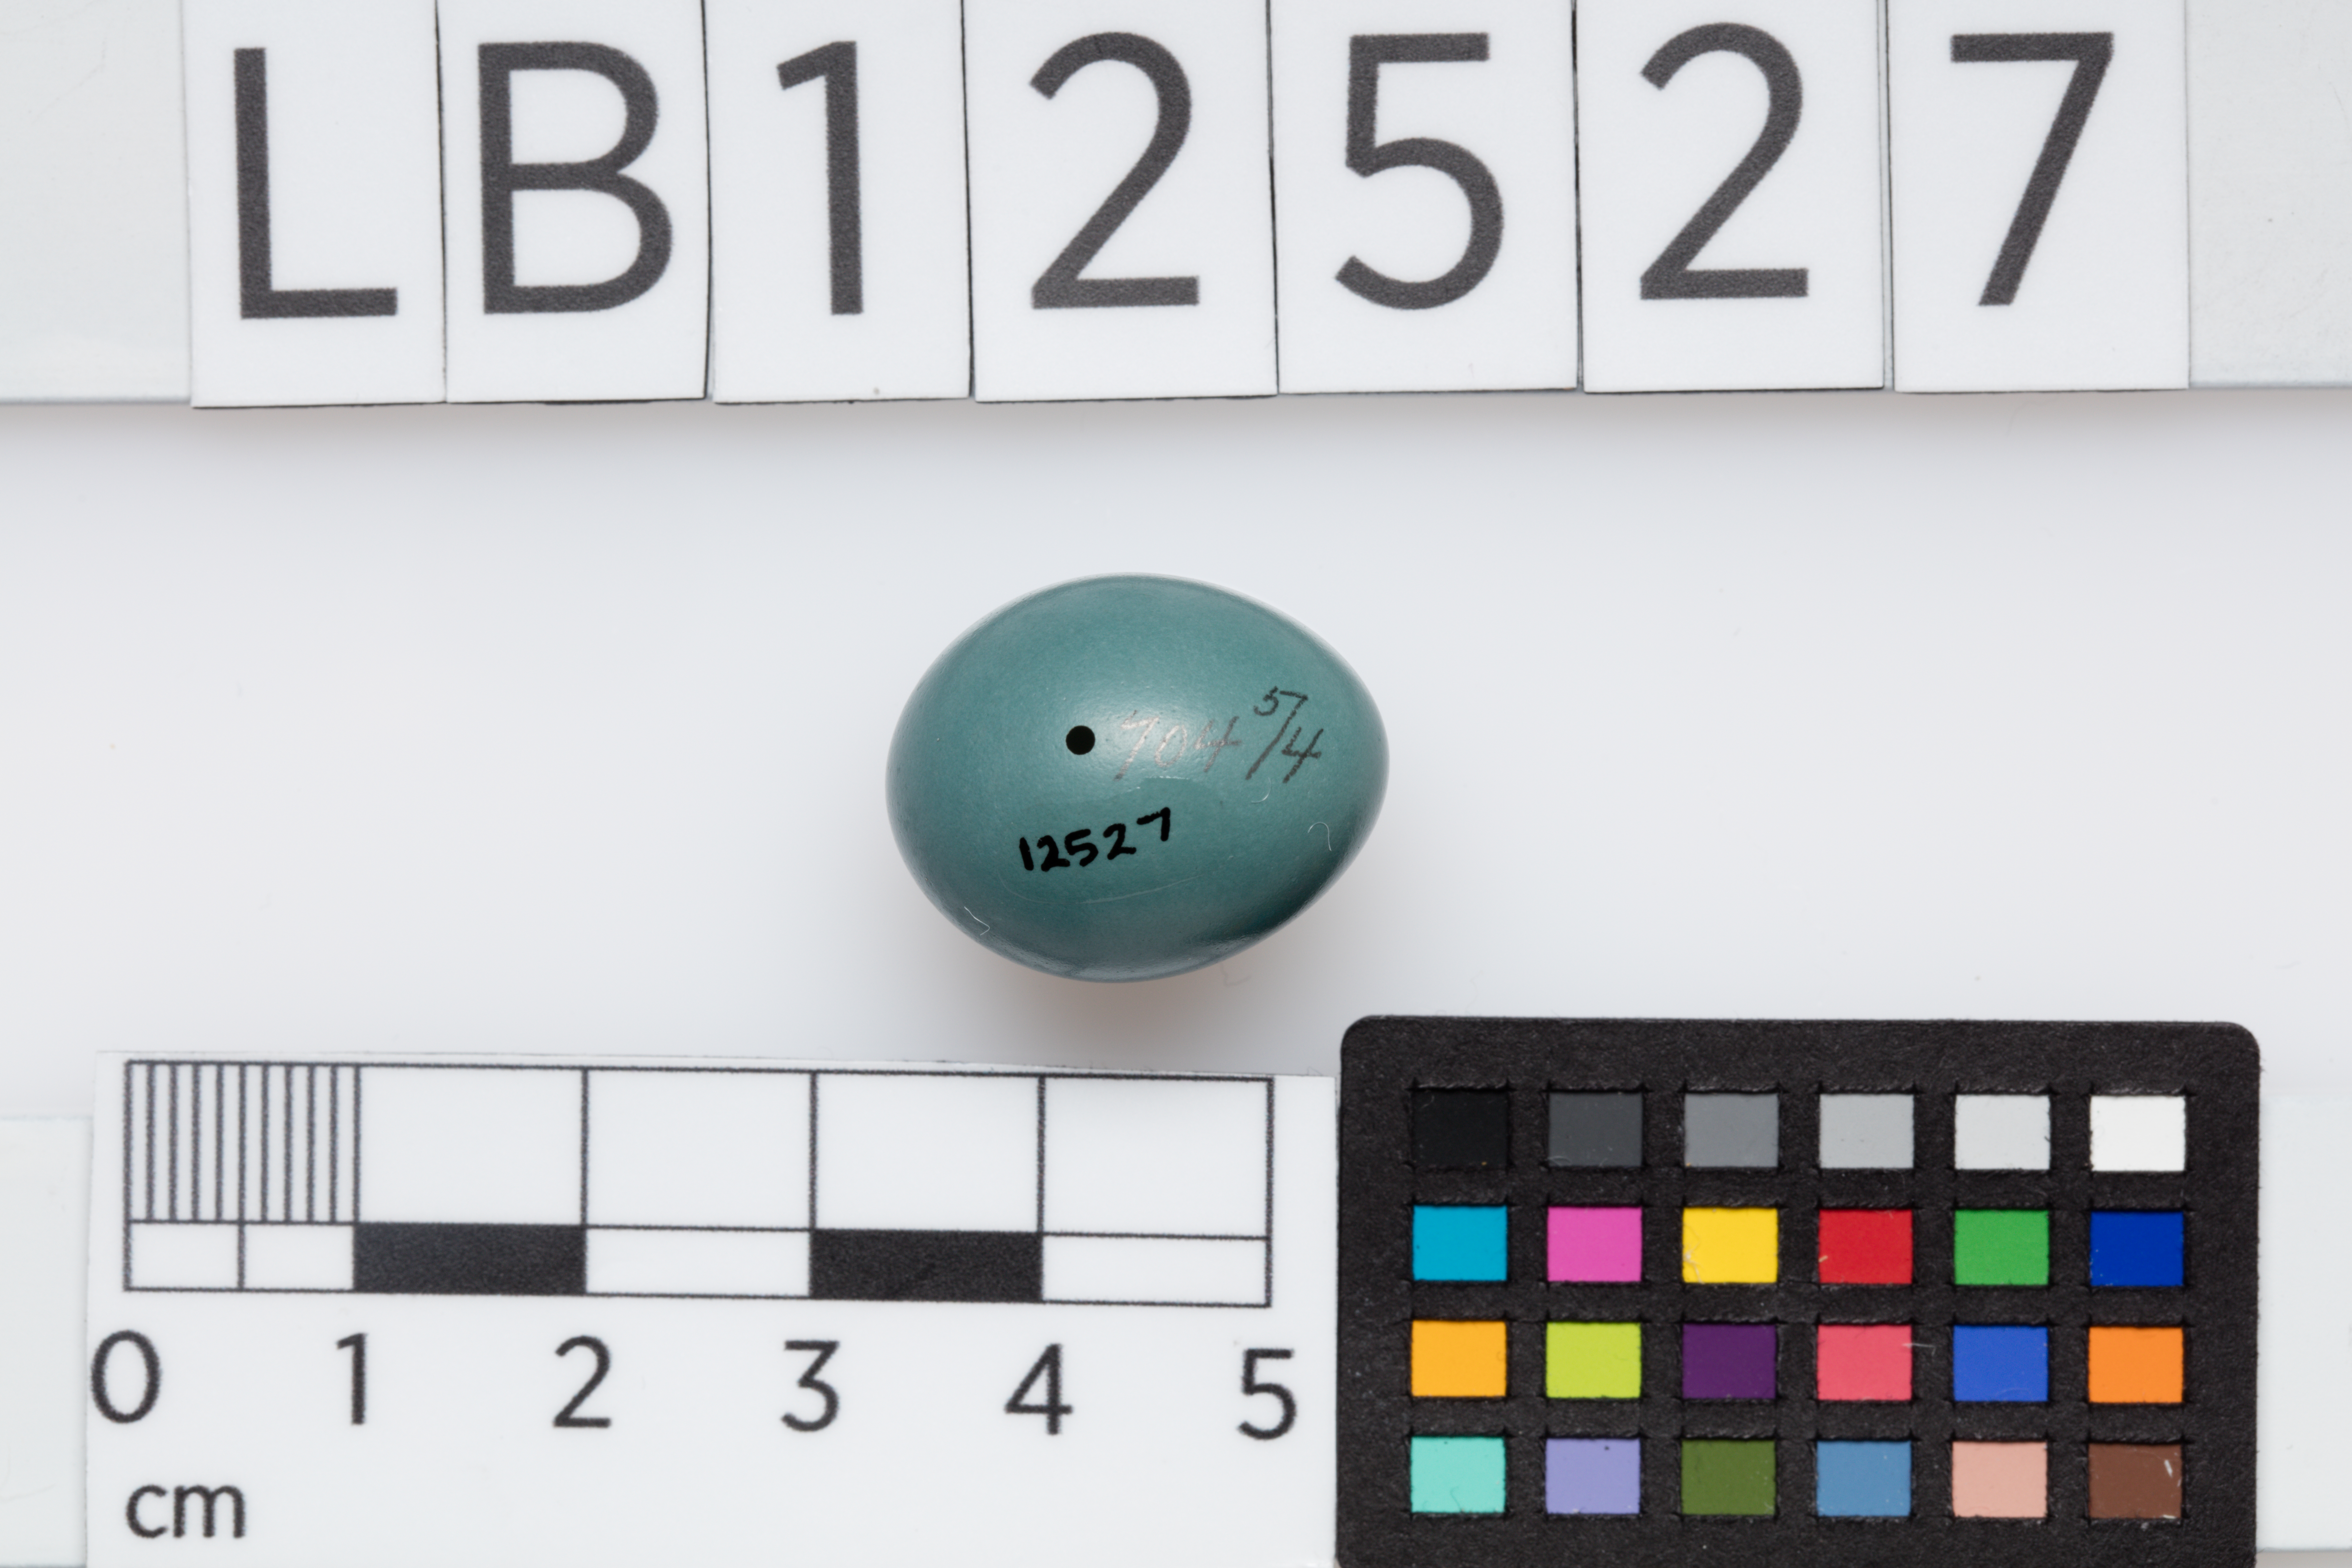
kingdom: Animalia
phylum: Chordata
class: Aves
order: Passeriformes
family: Mimidae
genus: Dumetella
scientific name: Dumetella carolinensis
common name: Gray catbird
